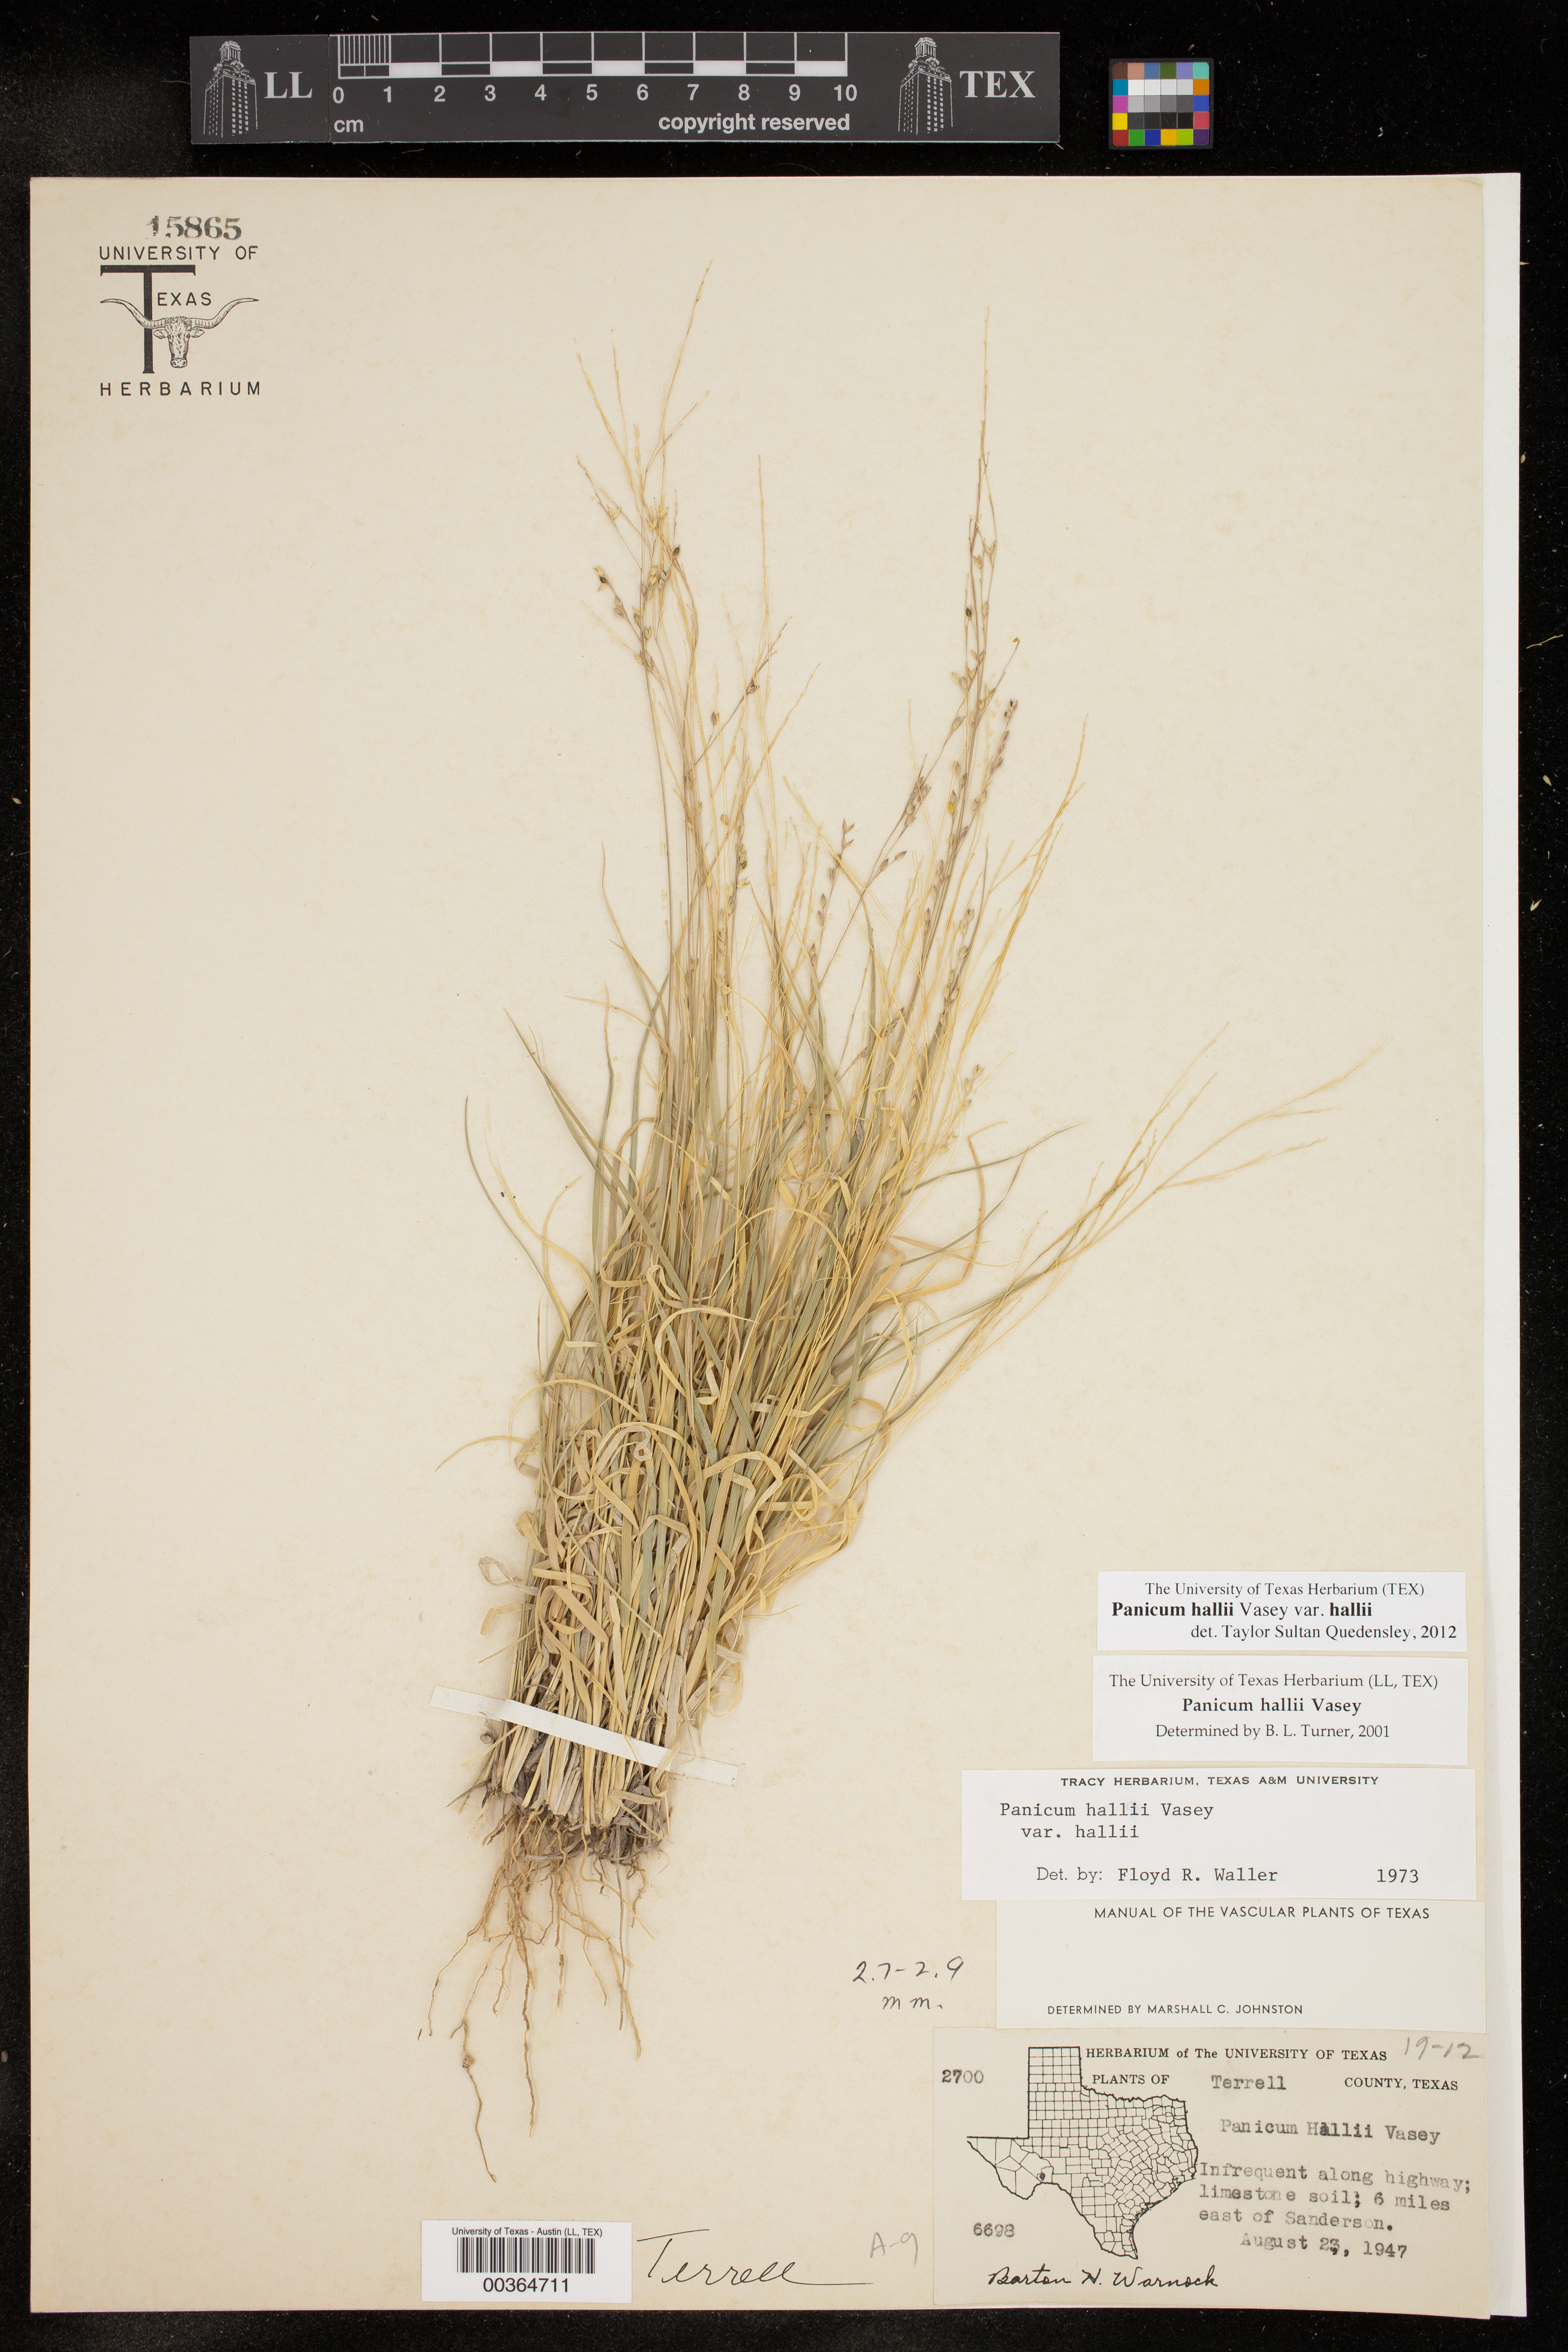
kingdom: Plantae
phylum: Tracheophyta
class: Liliopsida
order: Poales
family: Poaceae
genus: Panicum
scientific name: Panicum hallii
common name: Hall's witchgrass
